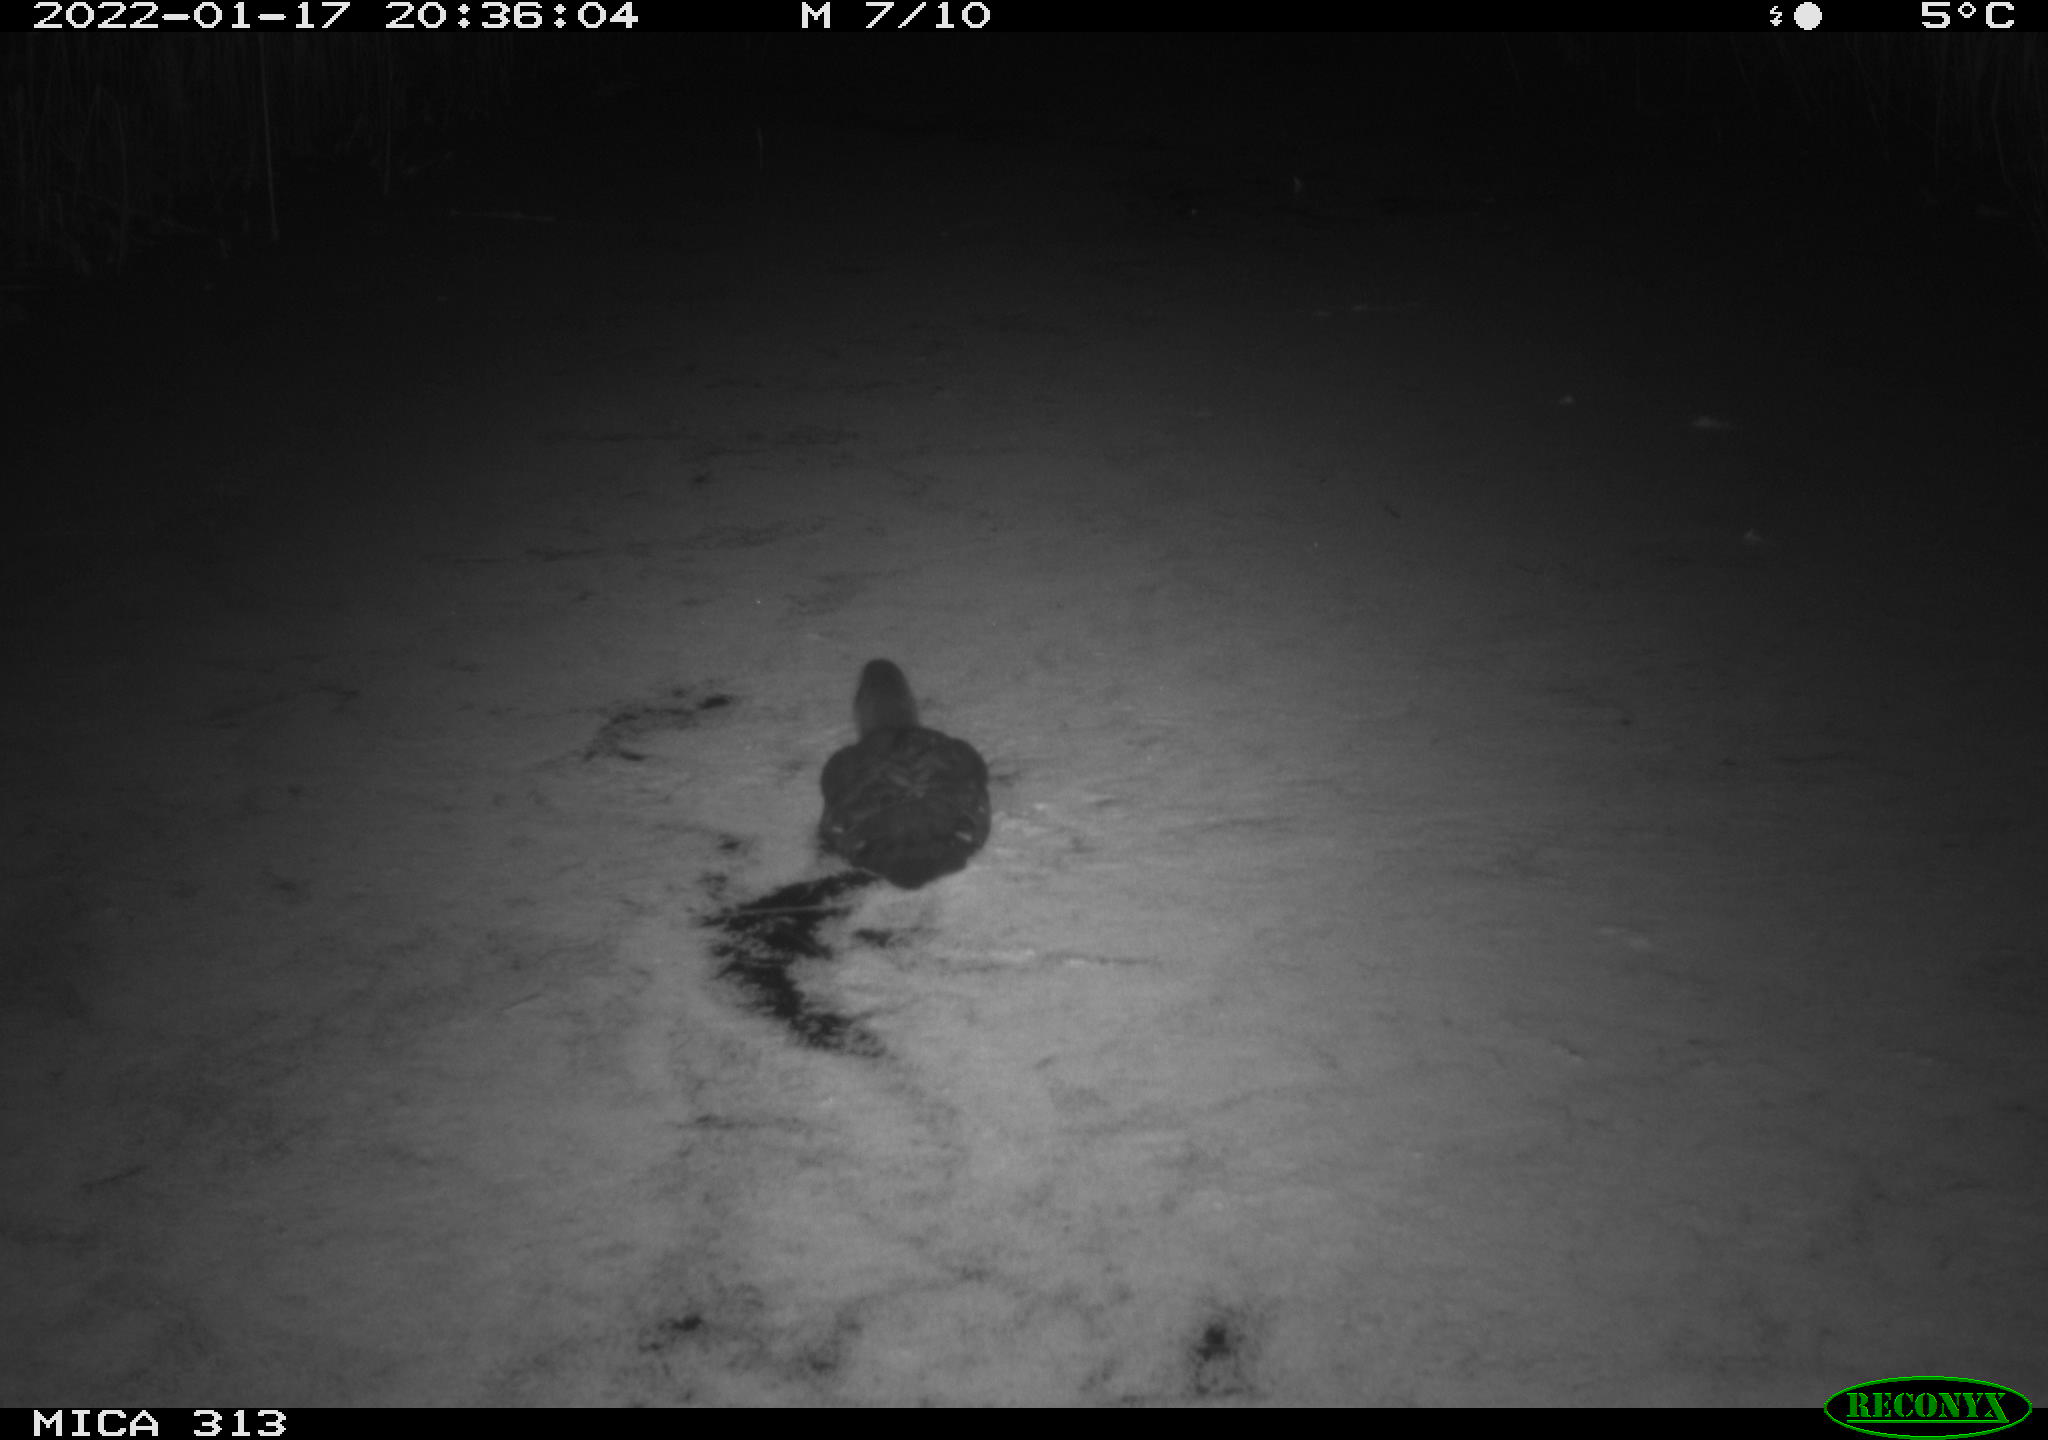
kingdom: Animalia
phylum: Chordata
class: Aves
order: Gruiformes
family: Rallidae
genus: Fulica
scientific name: Fulica atra
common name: Eurasian coot
